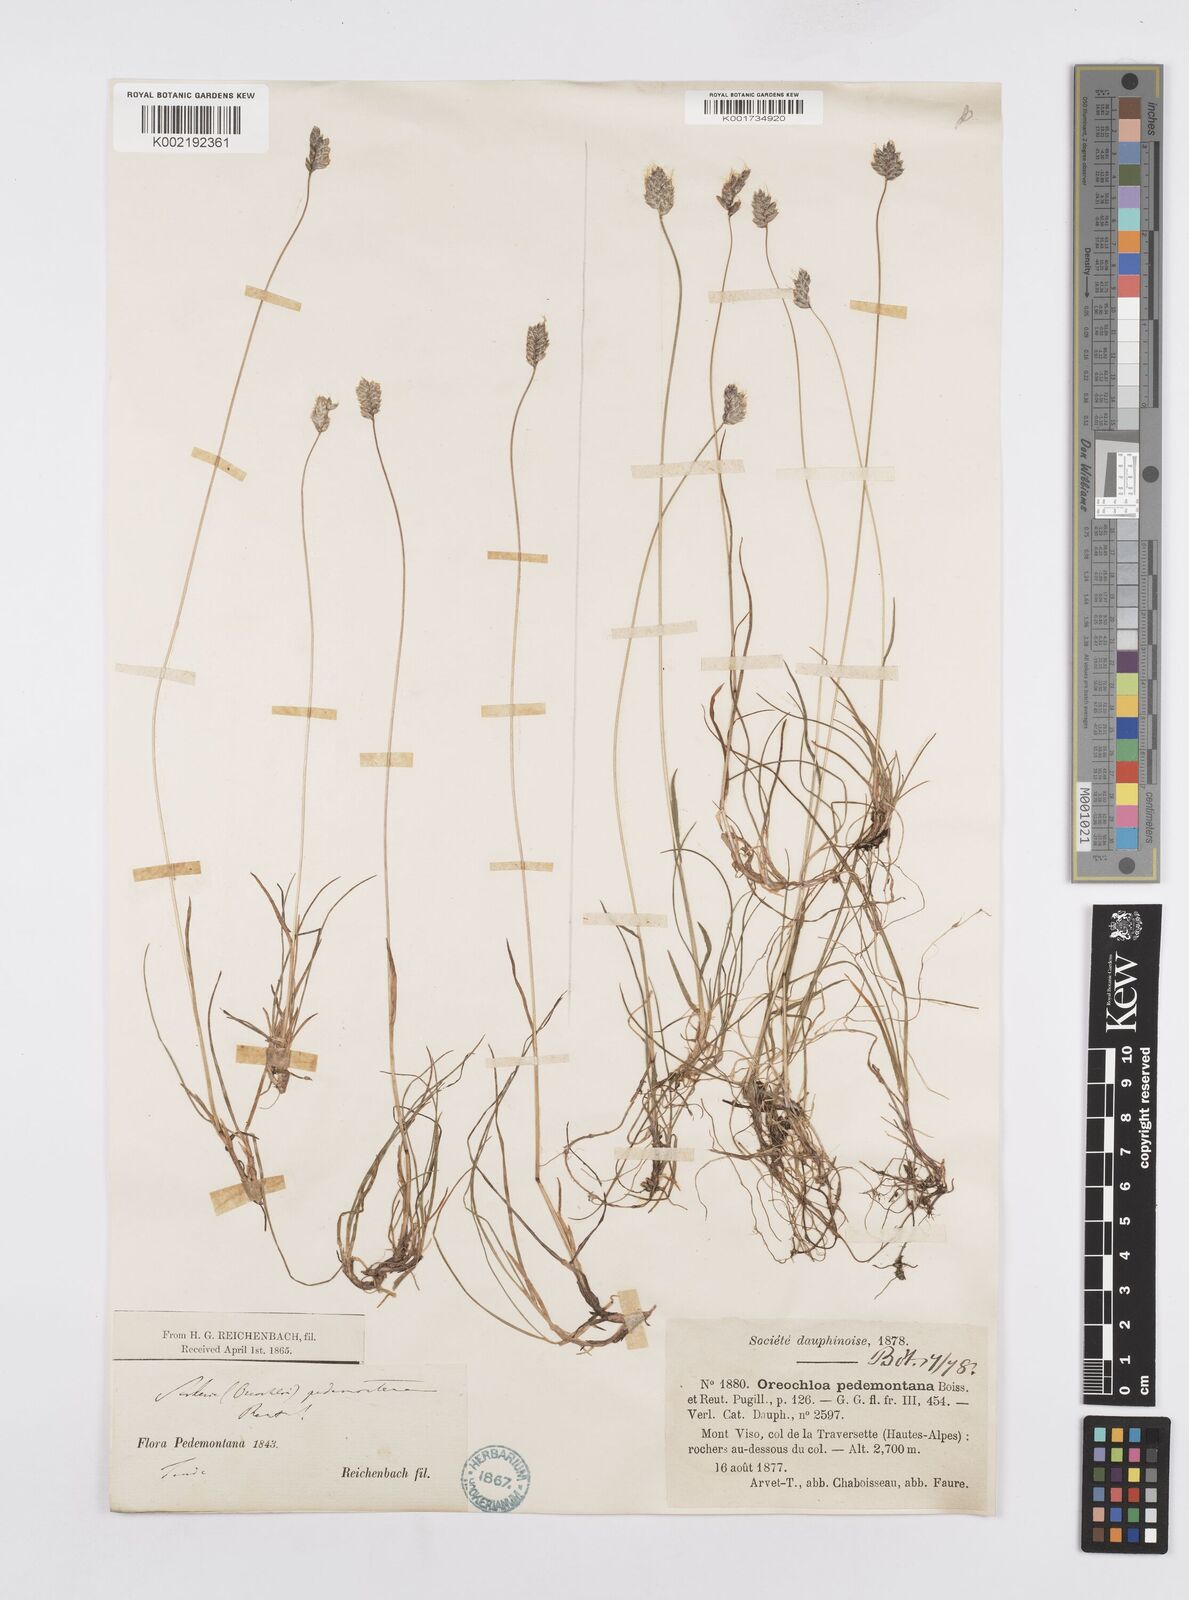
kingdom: Plantae
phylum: Tracheophyta
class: Liliopsida
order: Poales
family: Poaceae
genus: Oreochloa
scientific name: Oreochloa seslerioides
